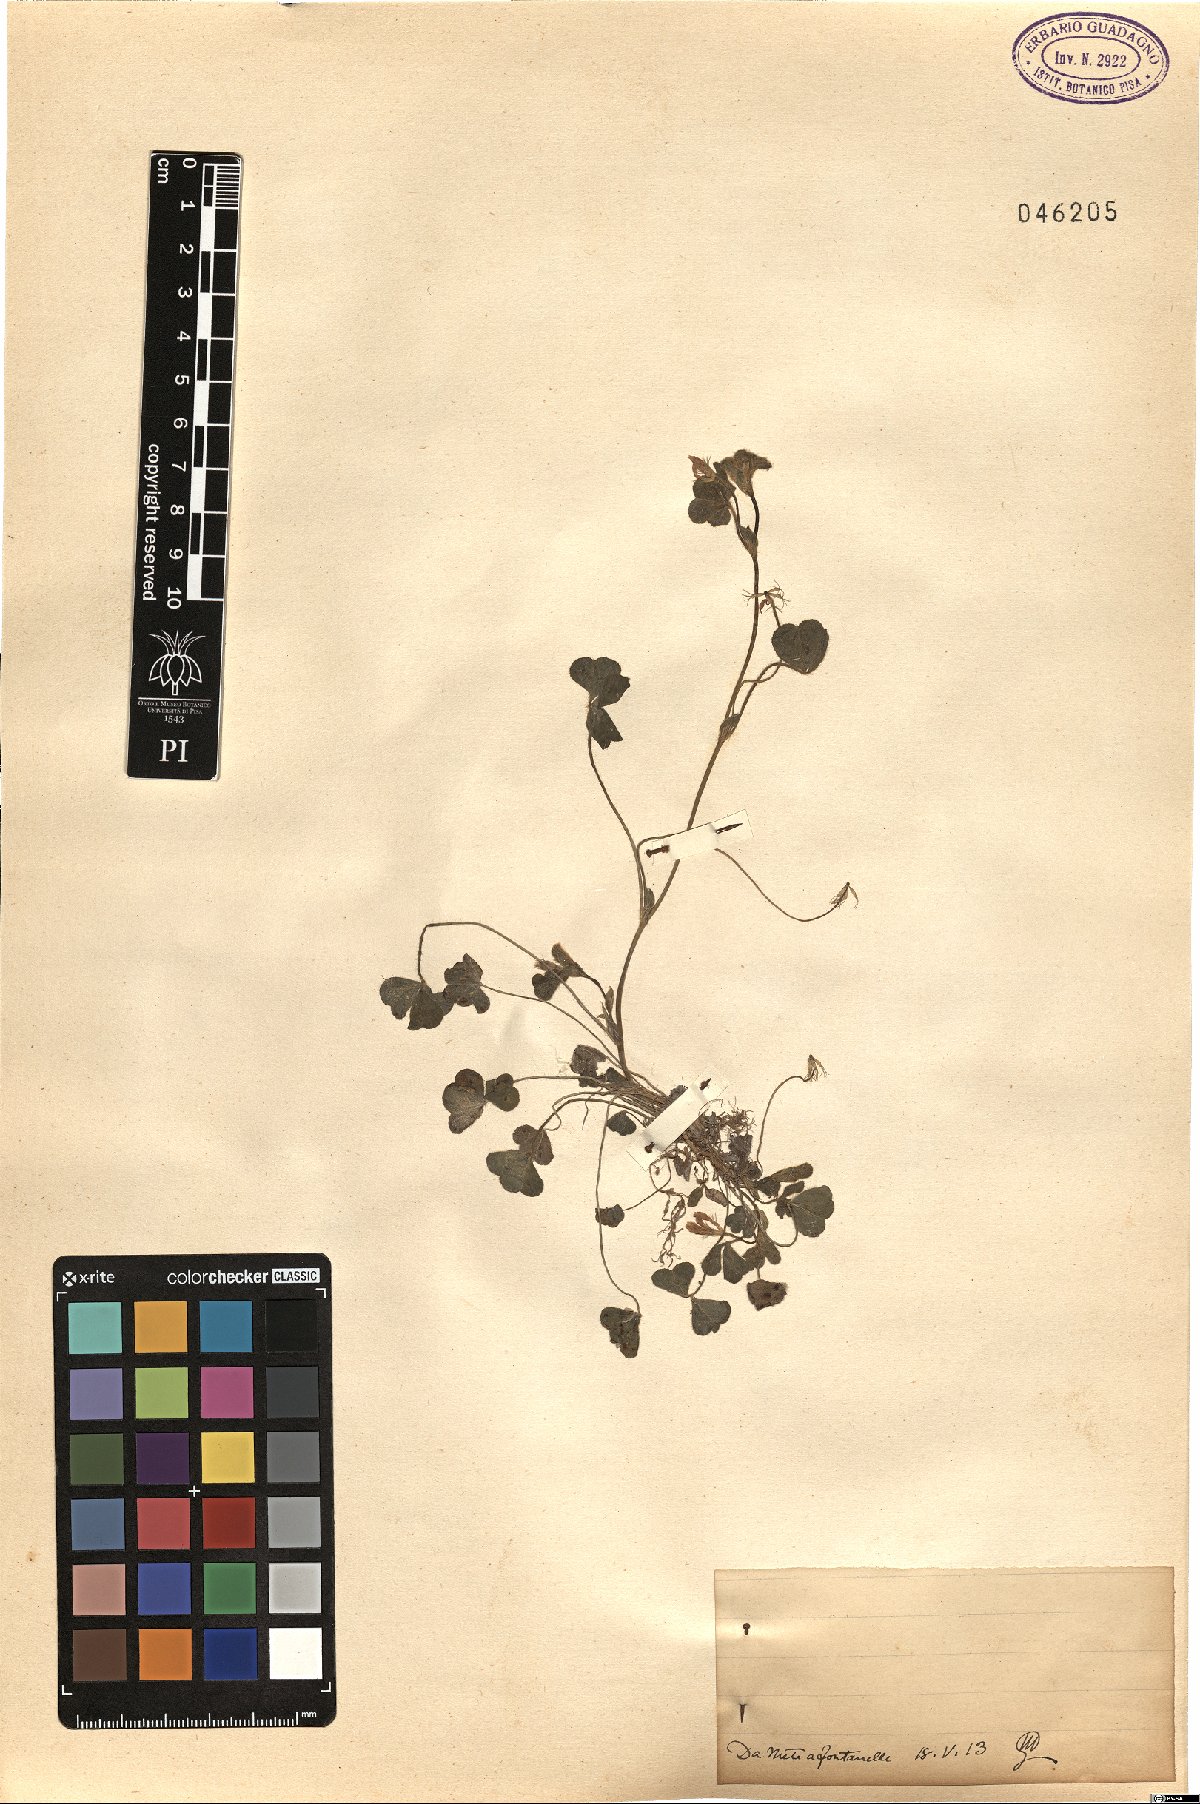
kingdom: Plantae
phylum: Tracheophyta
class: Magnoliopsida
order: Fabales
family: Fabaceae
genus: Trifolium
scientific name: Trifolium
